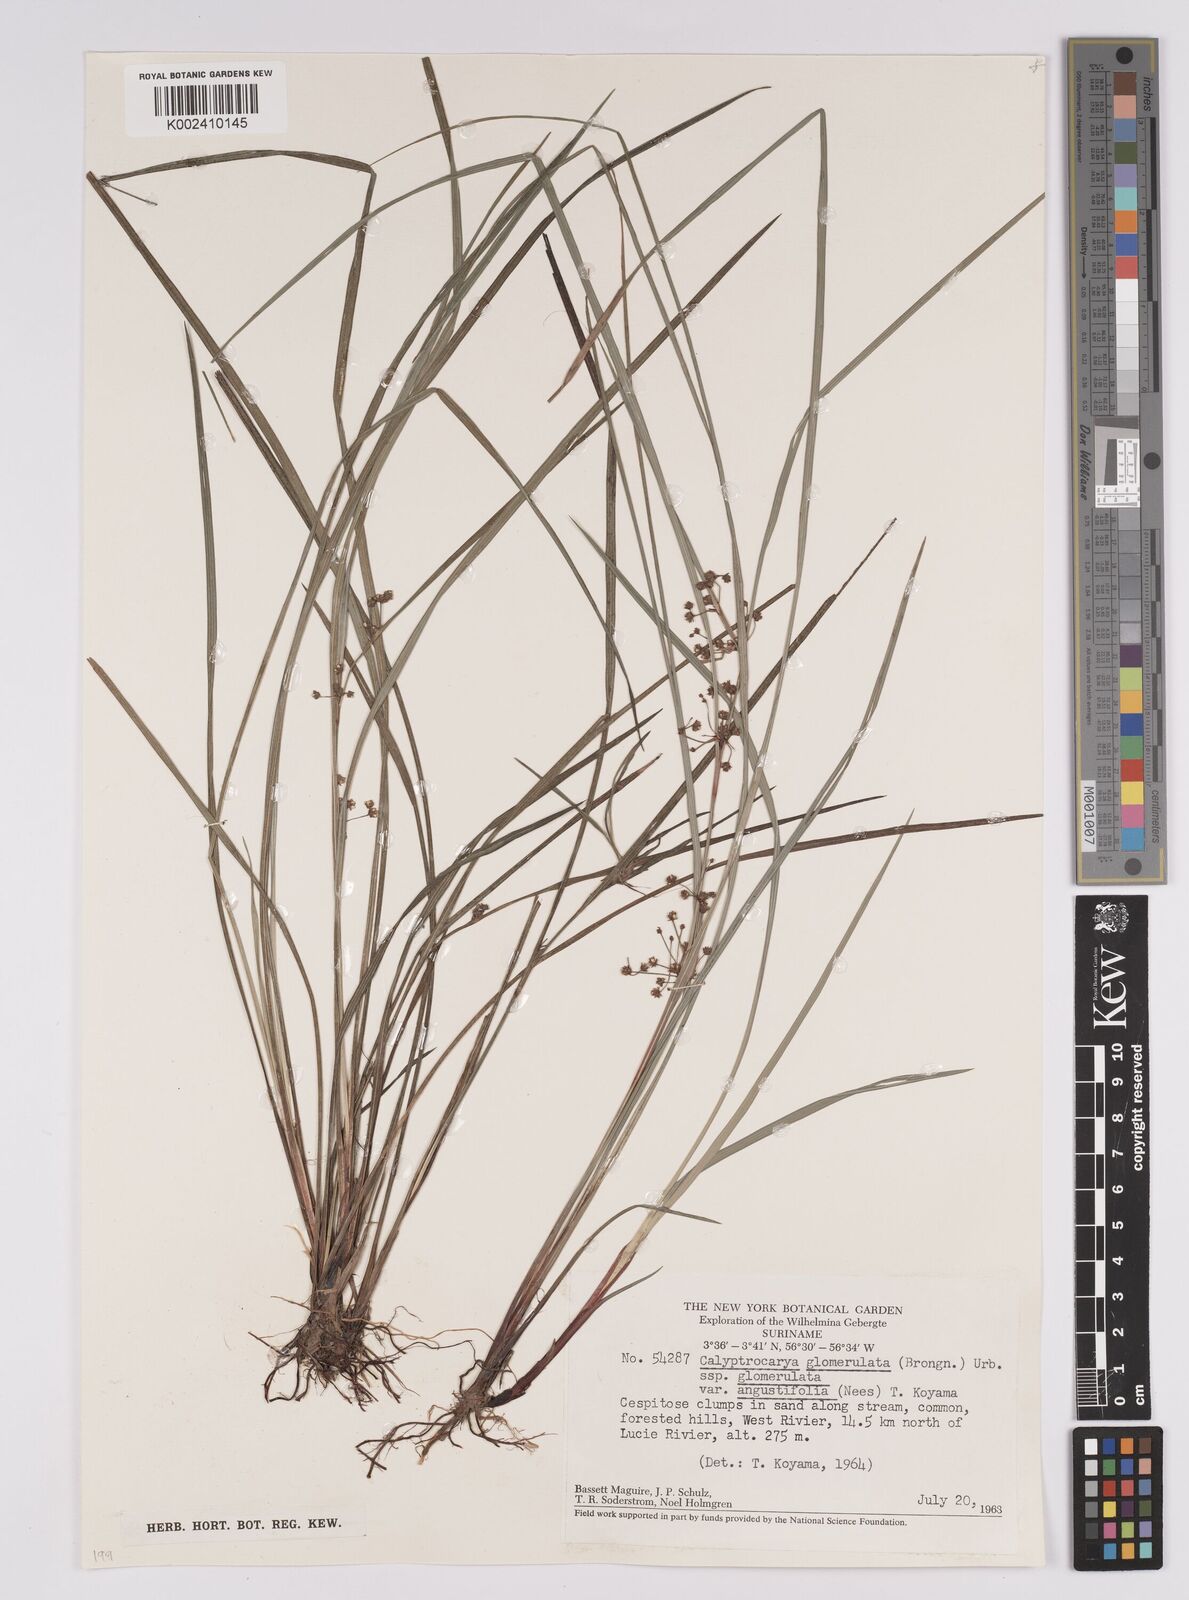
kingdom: Plantae
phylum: Tracheophyta
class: Liliopsida
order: Poales
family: Cyperaceae
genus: Calyptrocarya
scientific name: Calyptrocarya glomerulata
